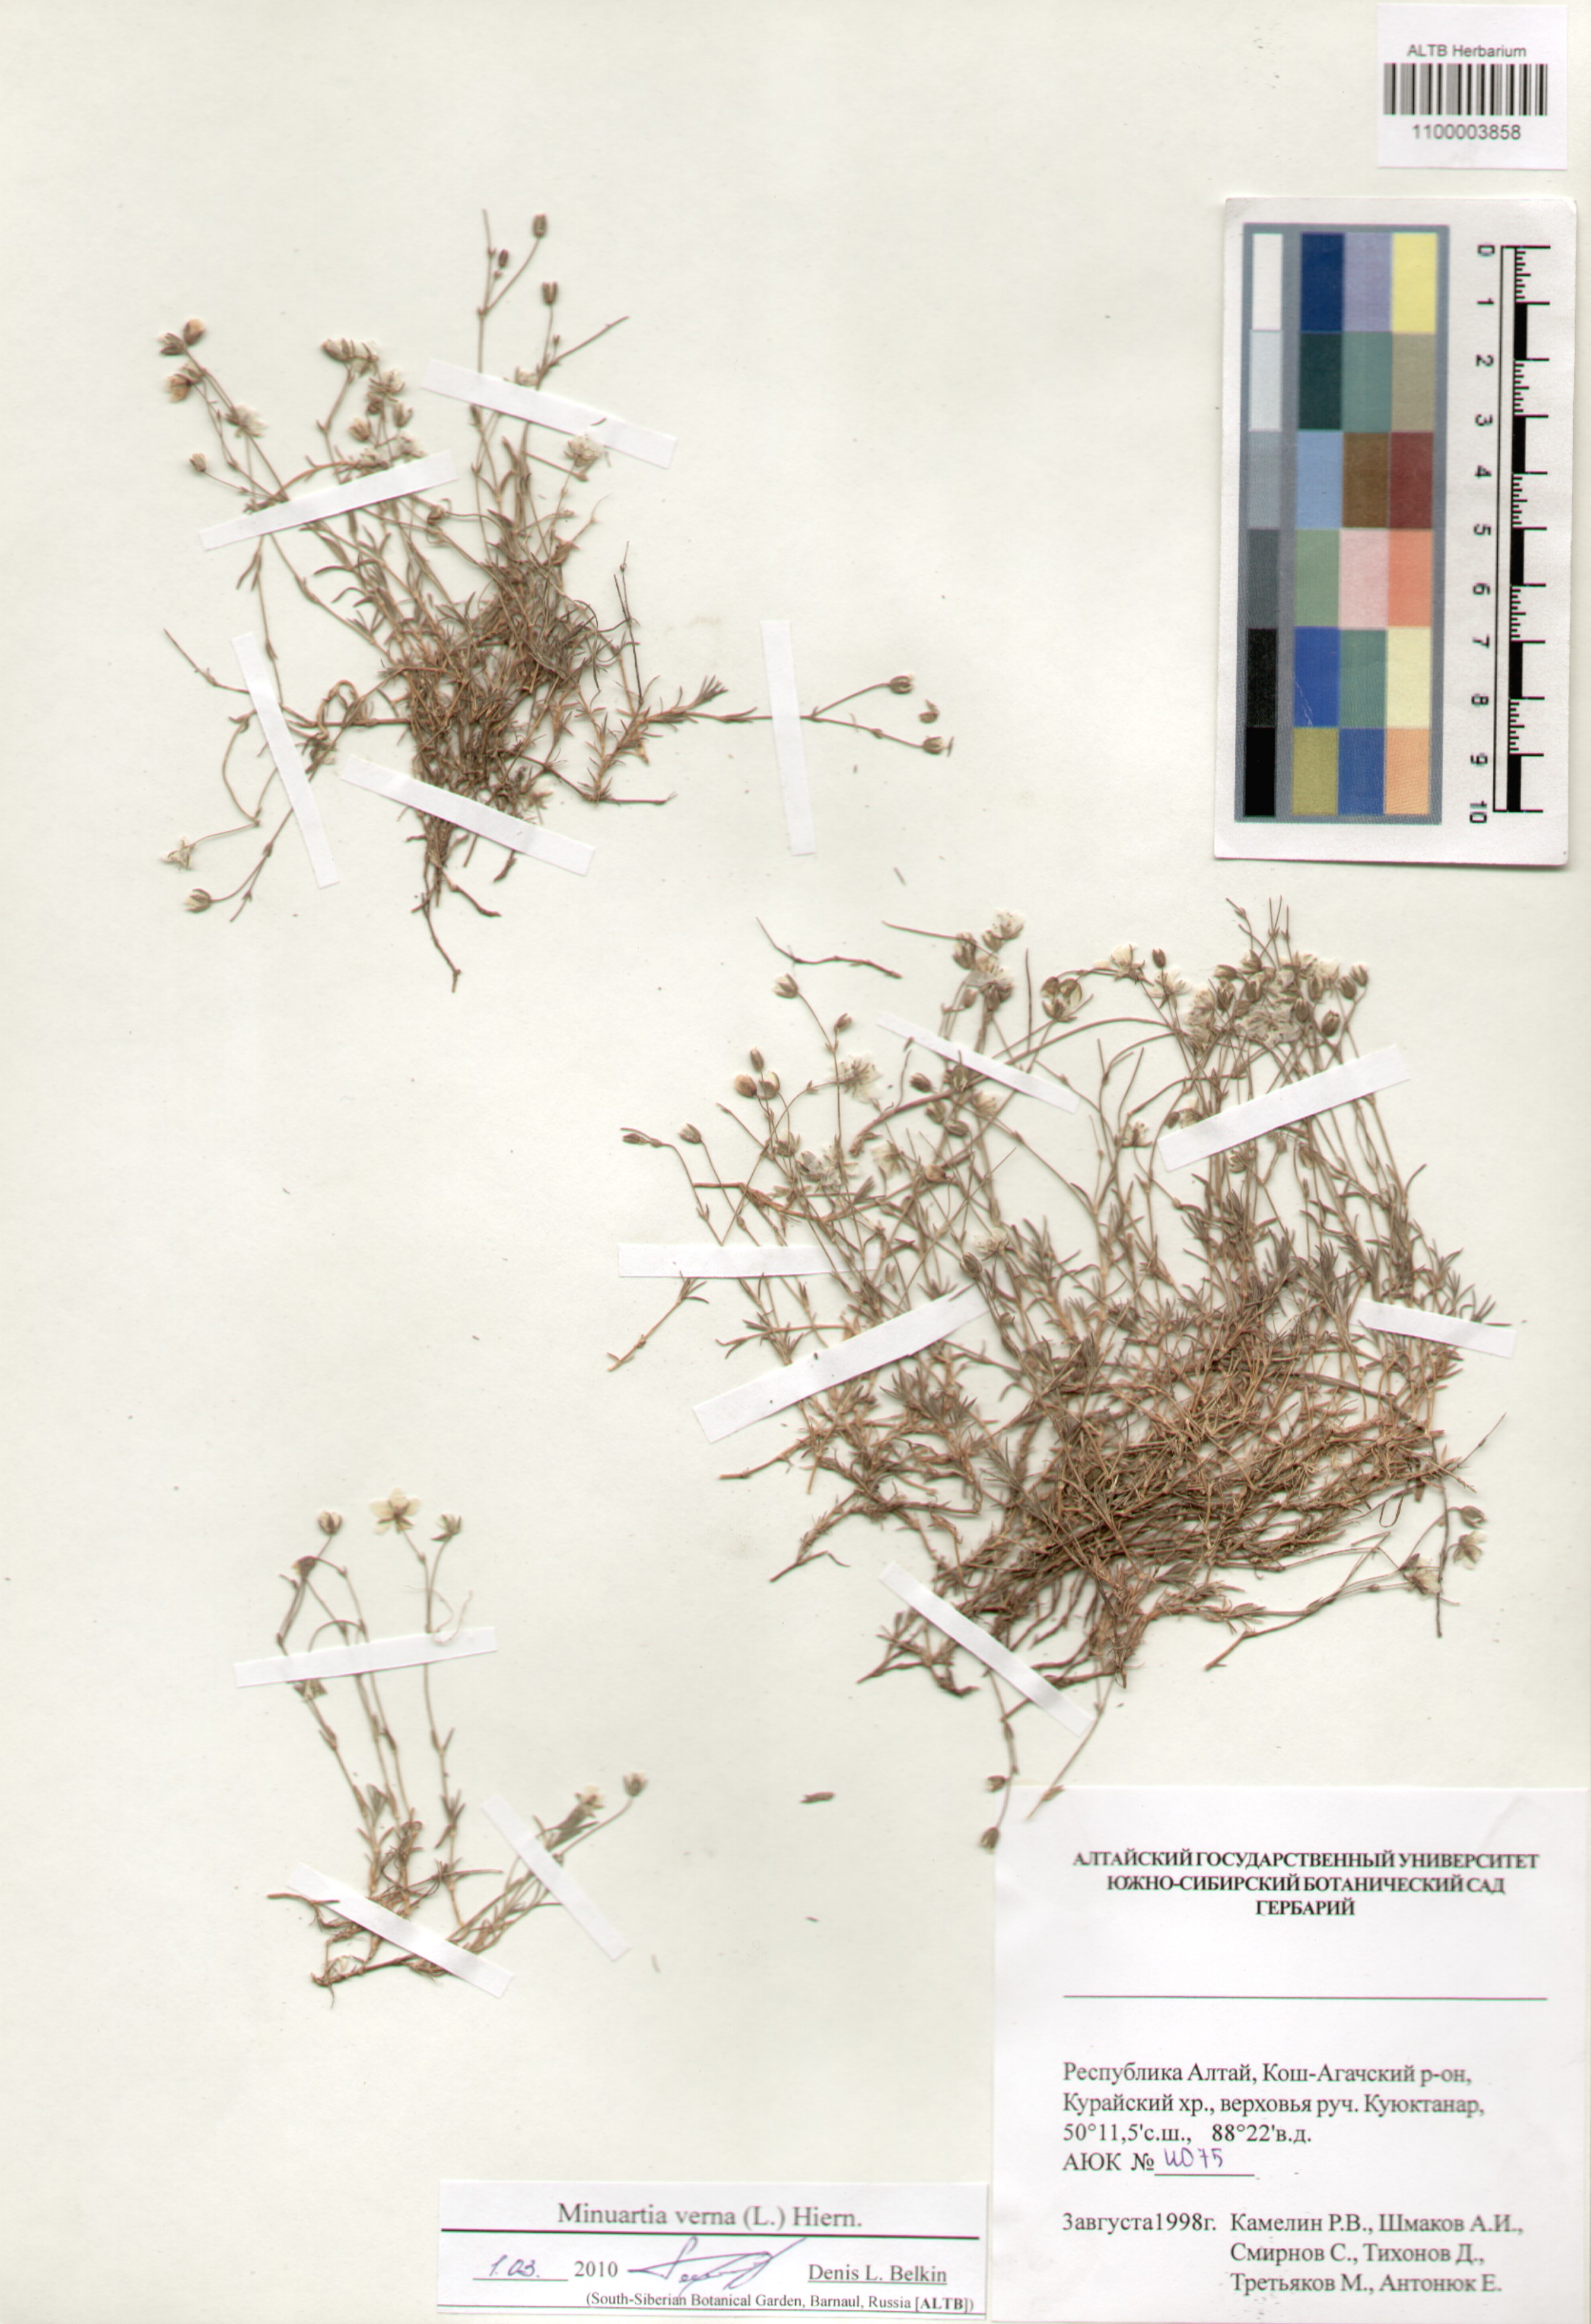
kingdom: Plantae
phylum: Tracheophyta
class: Magnoliopsida
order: Caryophyllales
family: Caryophyllaceae
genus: Sabulina
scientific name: Sabulina verna
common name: Spring sandwort
